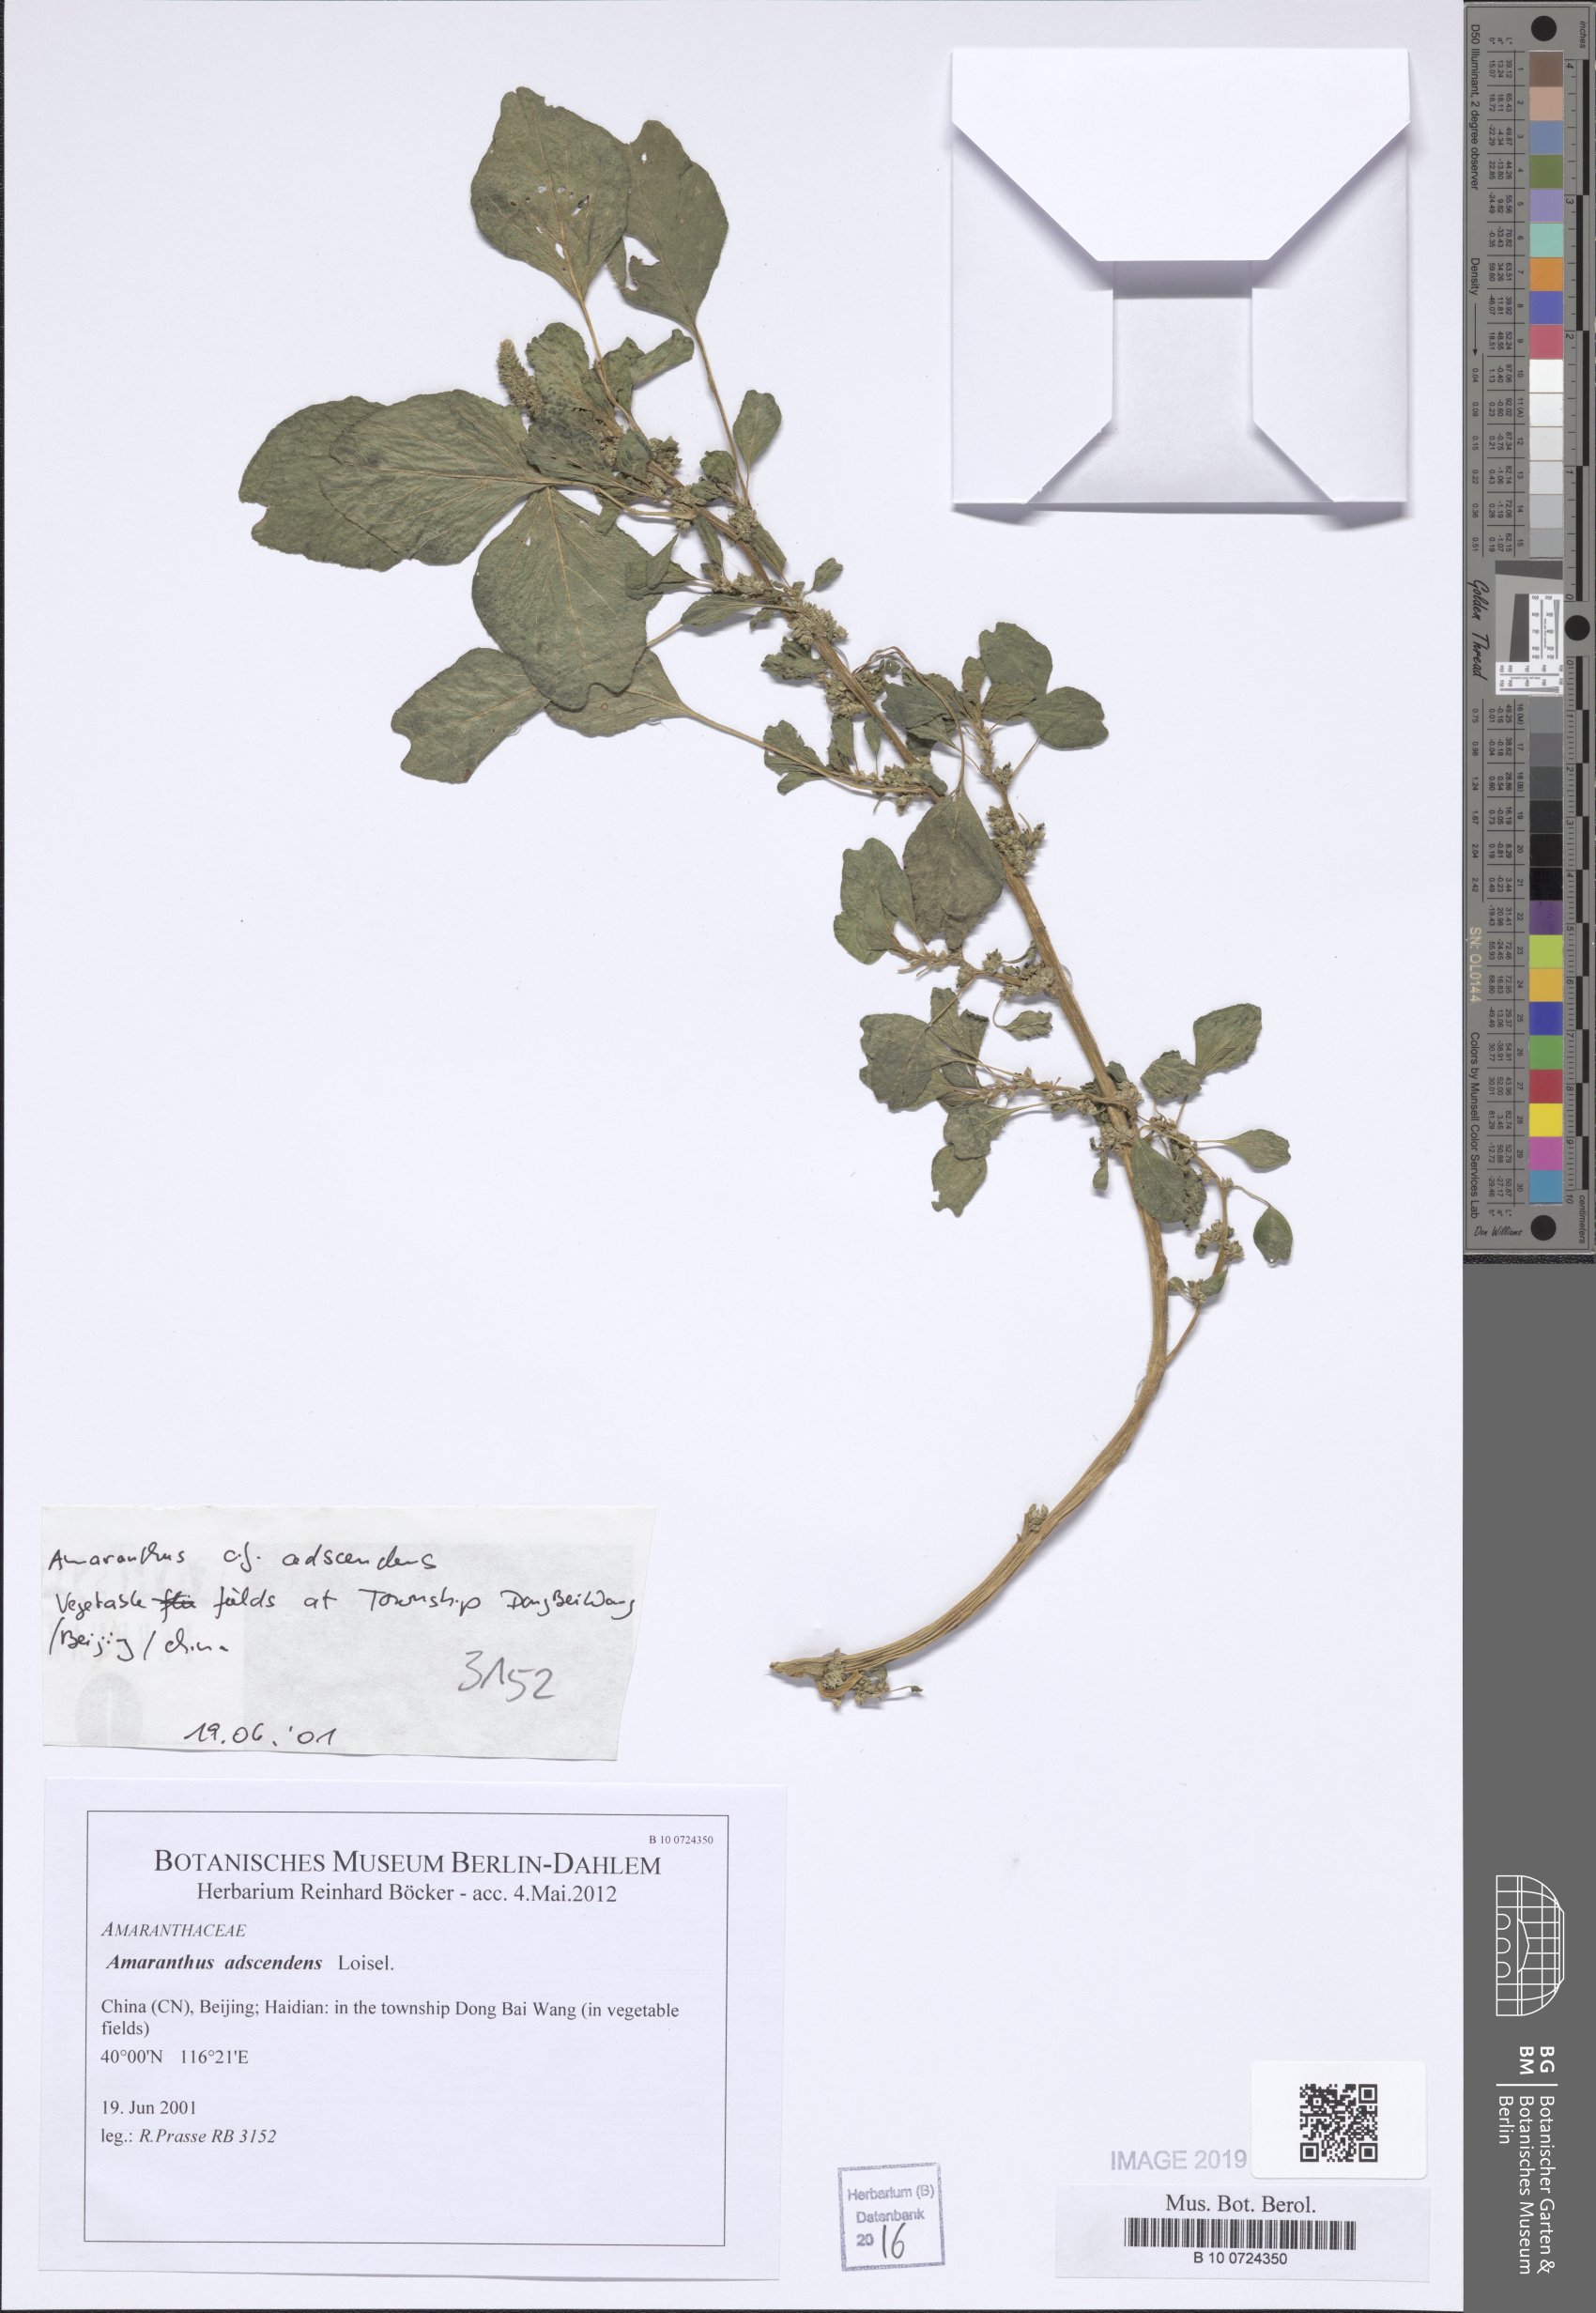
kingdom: Plantae
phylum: Tracheophyta
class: Magnoliopsida
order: Caryophyllales
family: Amaranthaceae
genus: Amaranthus
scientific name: Amaranthus adscendens
